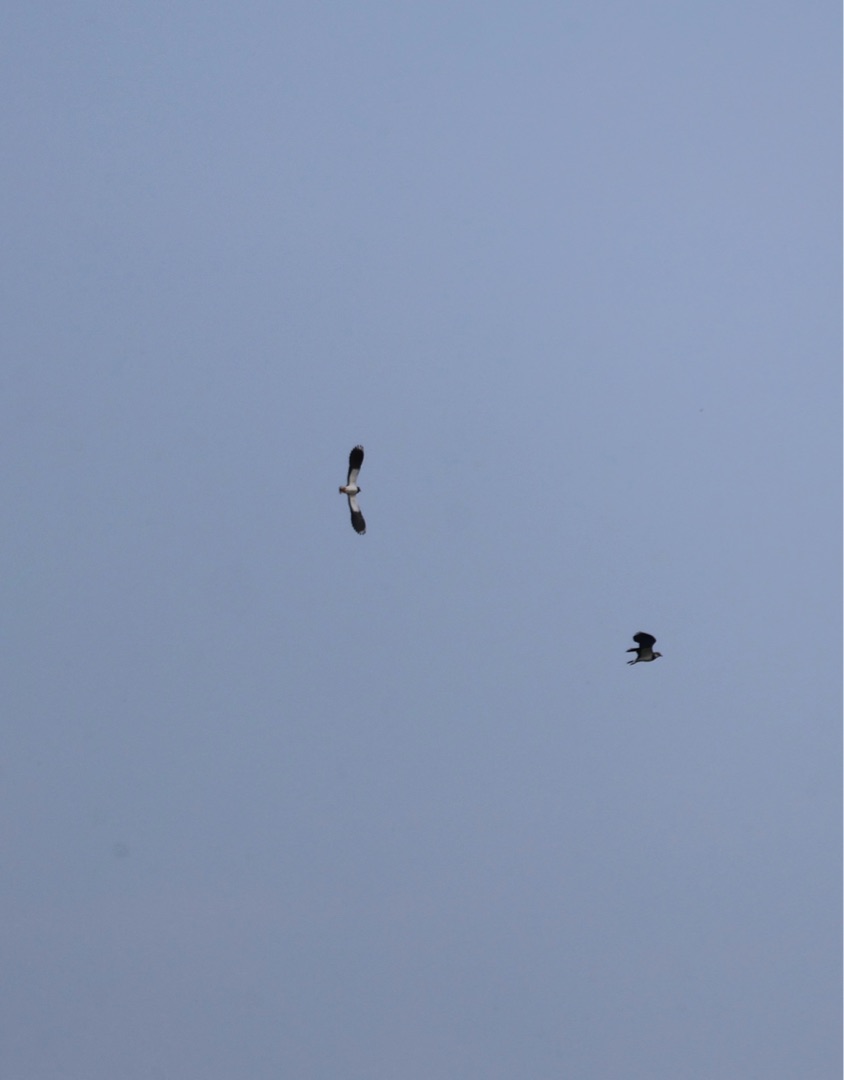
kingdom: Animalia
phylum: Chordata
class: Aves
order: Charadriiformes
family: Charadriidae
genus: Vanellus
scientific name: Vanellus vanellus
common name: Vibe
